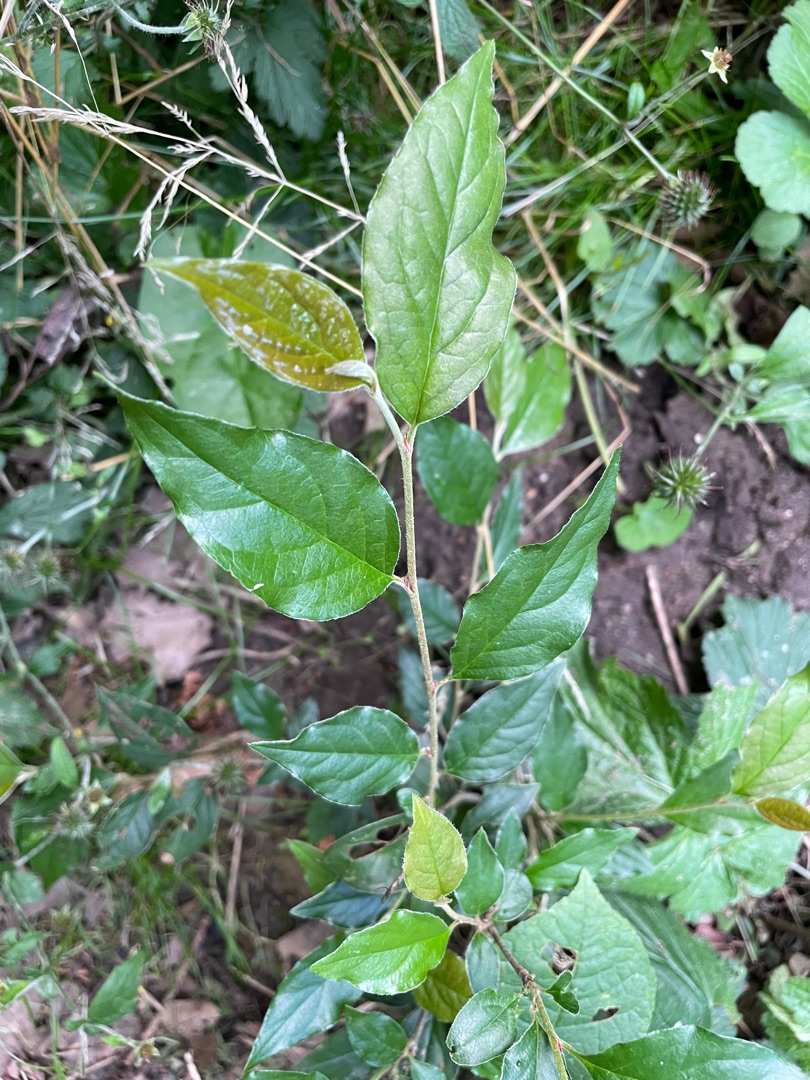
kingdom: Plantae
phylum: Tracheophyta
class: Magnoliopsida
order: Rosales
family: Rosaceae
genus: Cotoneaster
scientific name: Cotoneaster ambiguus
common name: Lysbladet dværgmispel
